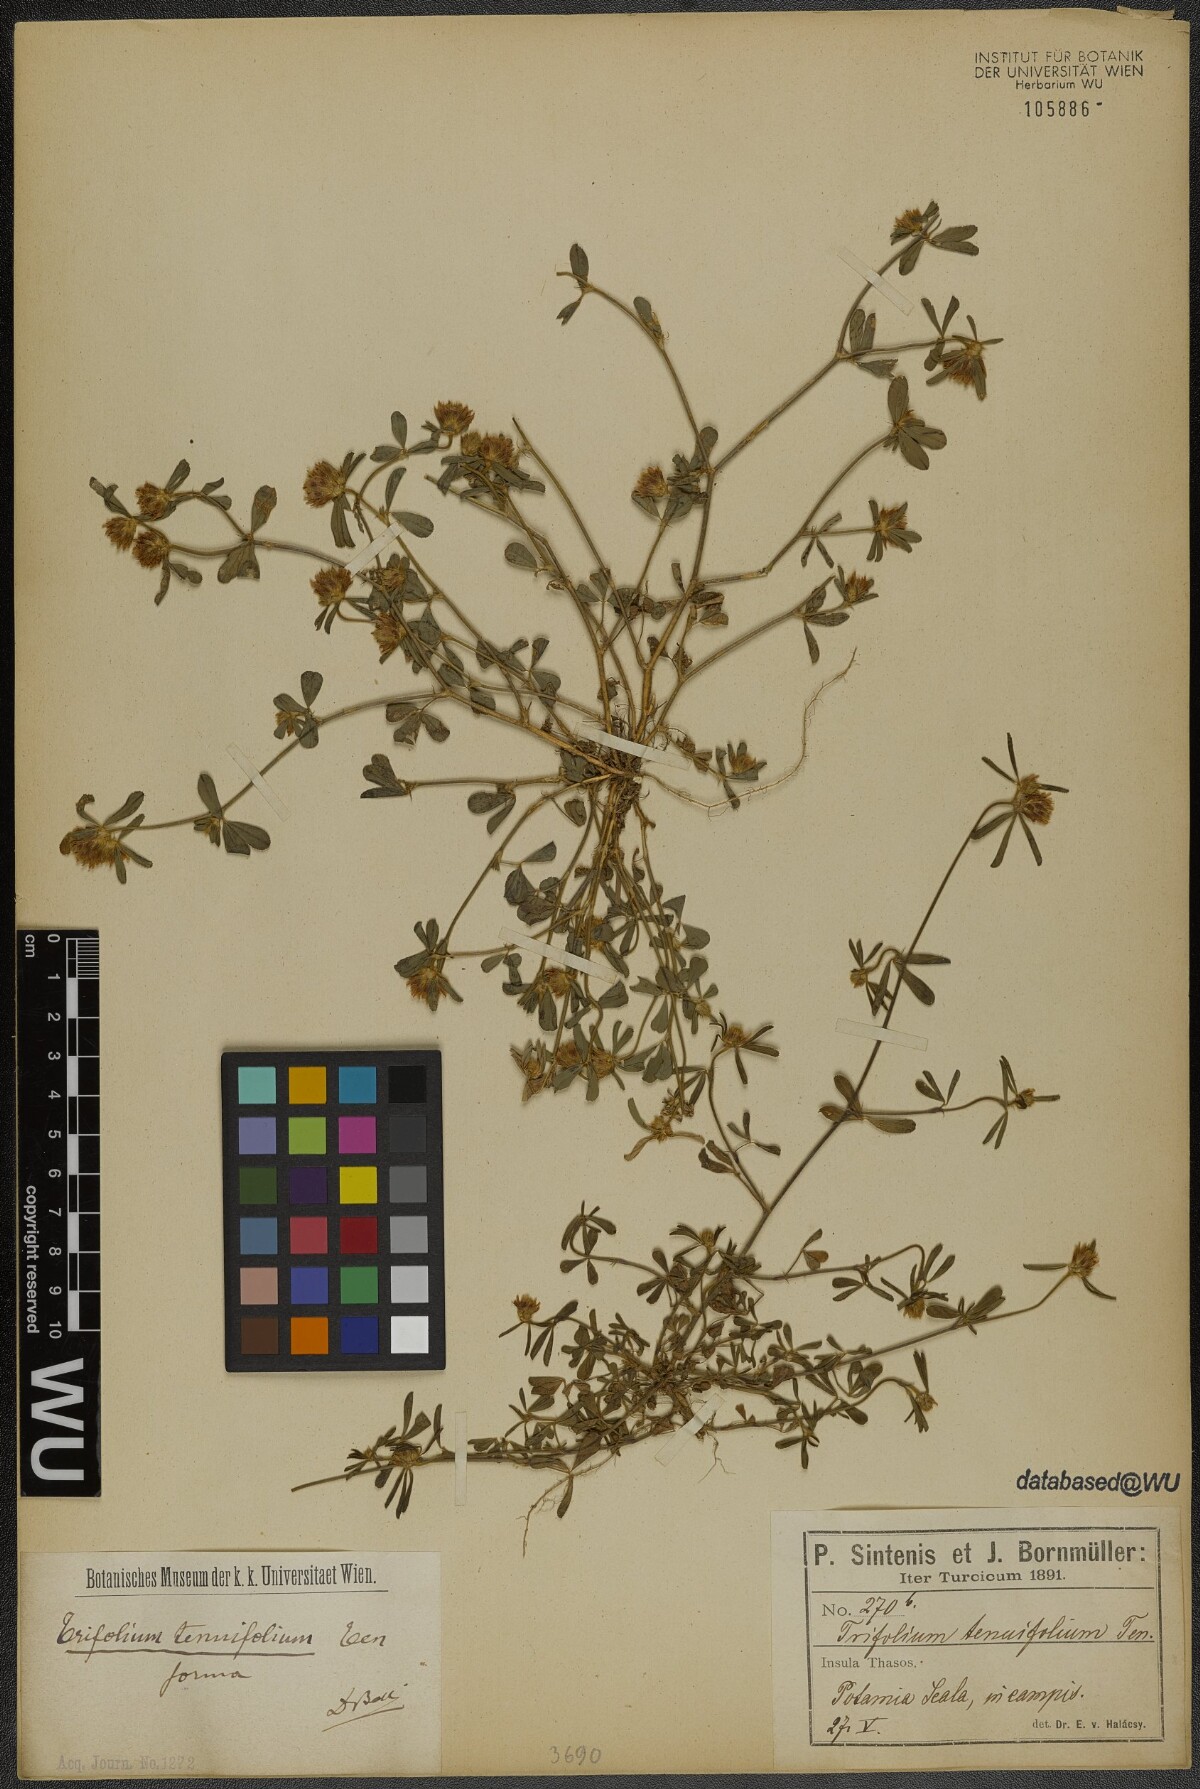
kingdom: Plantae
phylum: Tracheophyta
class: Magnoliopsida
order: Fabales
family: Fabaceae
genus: Trifolium
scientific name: Trifolium tenuifolium
